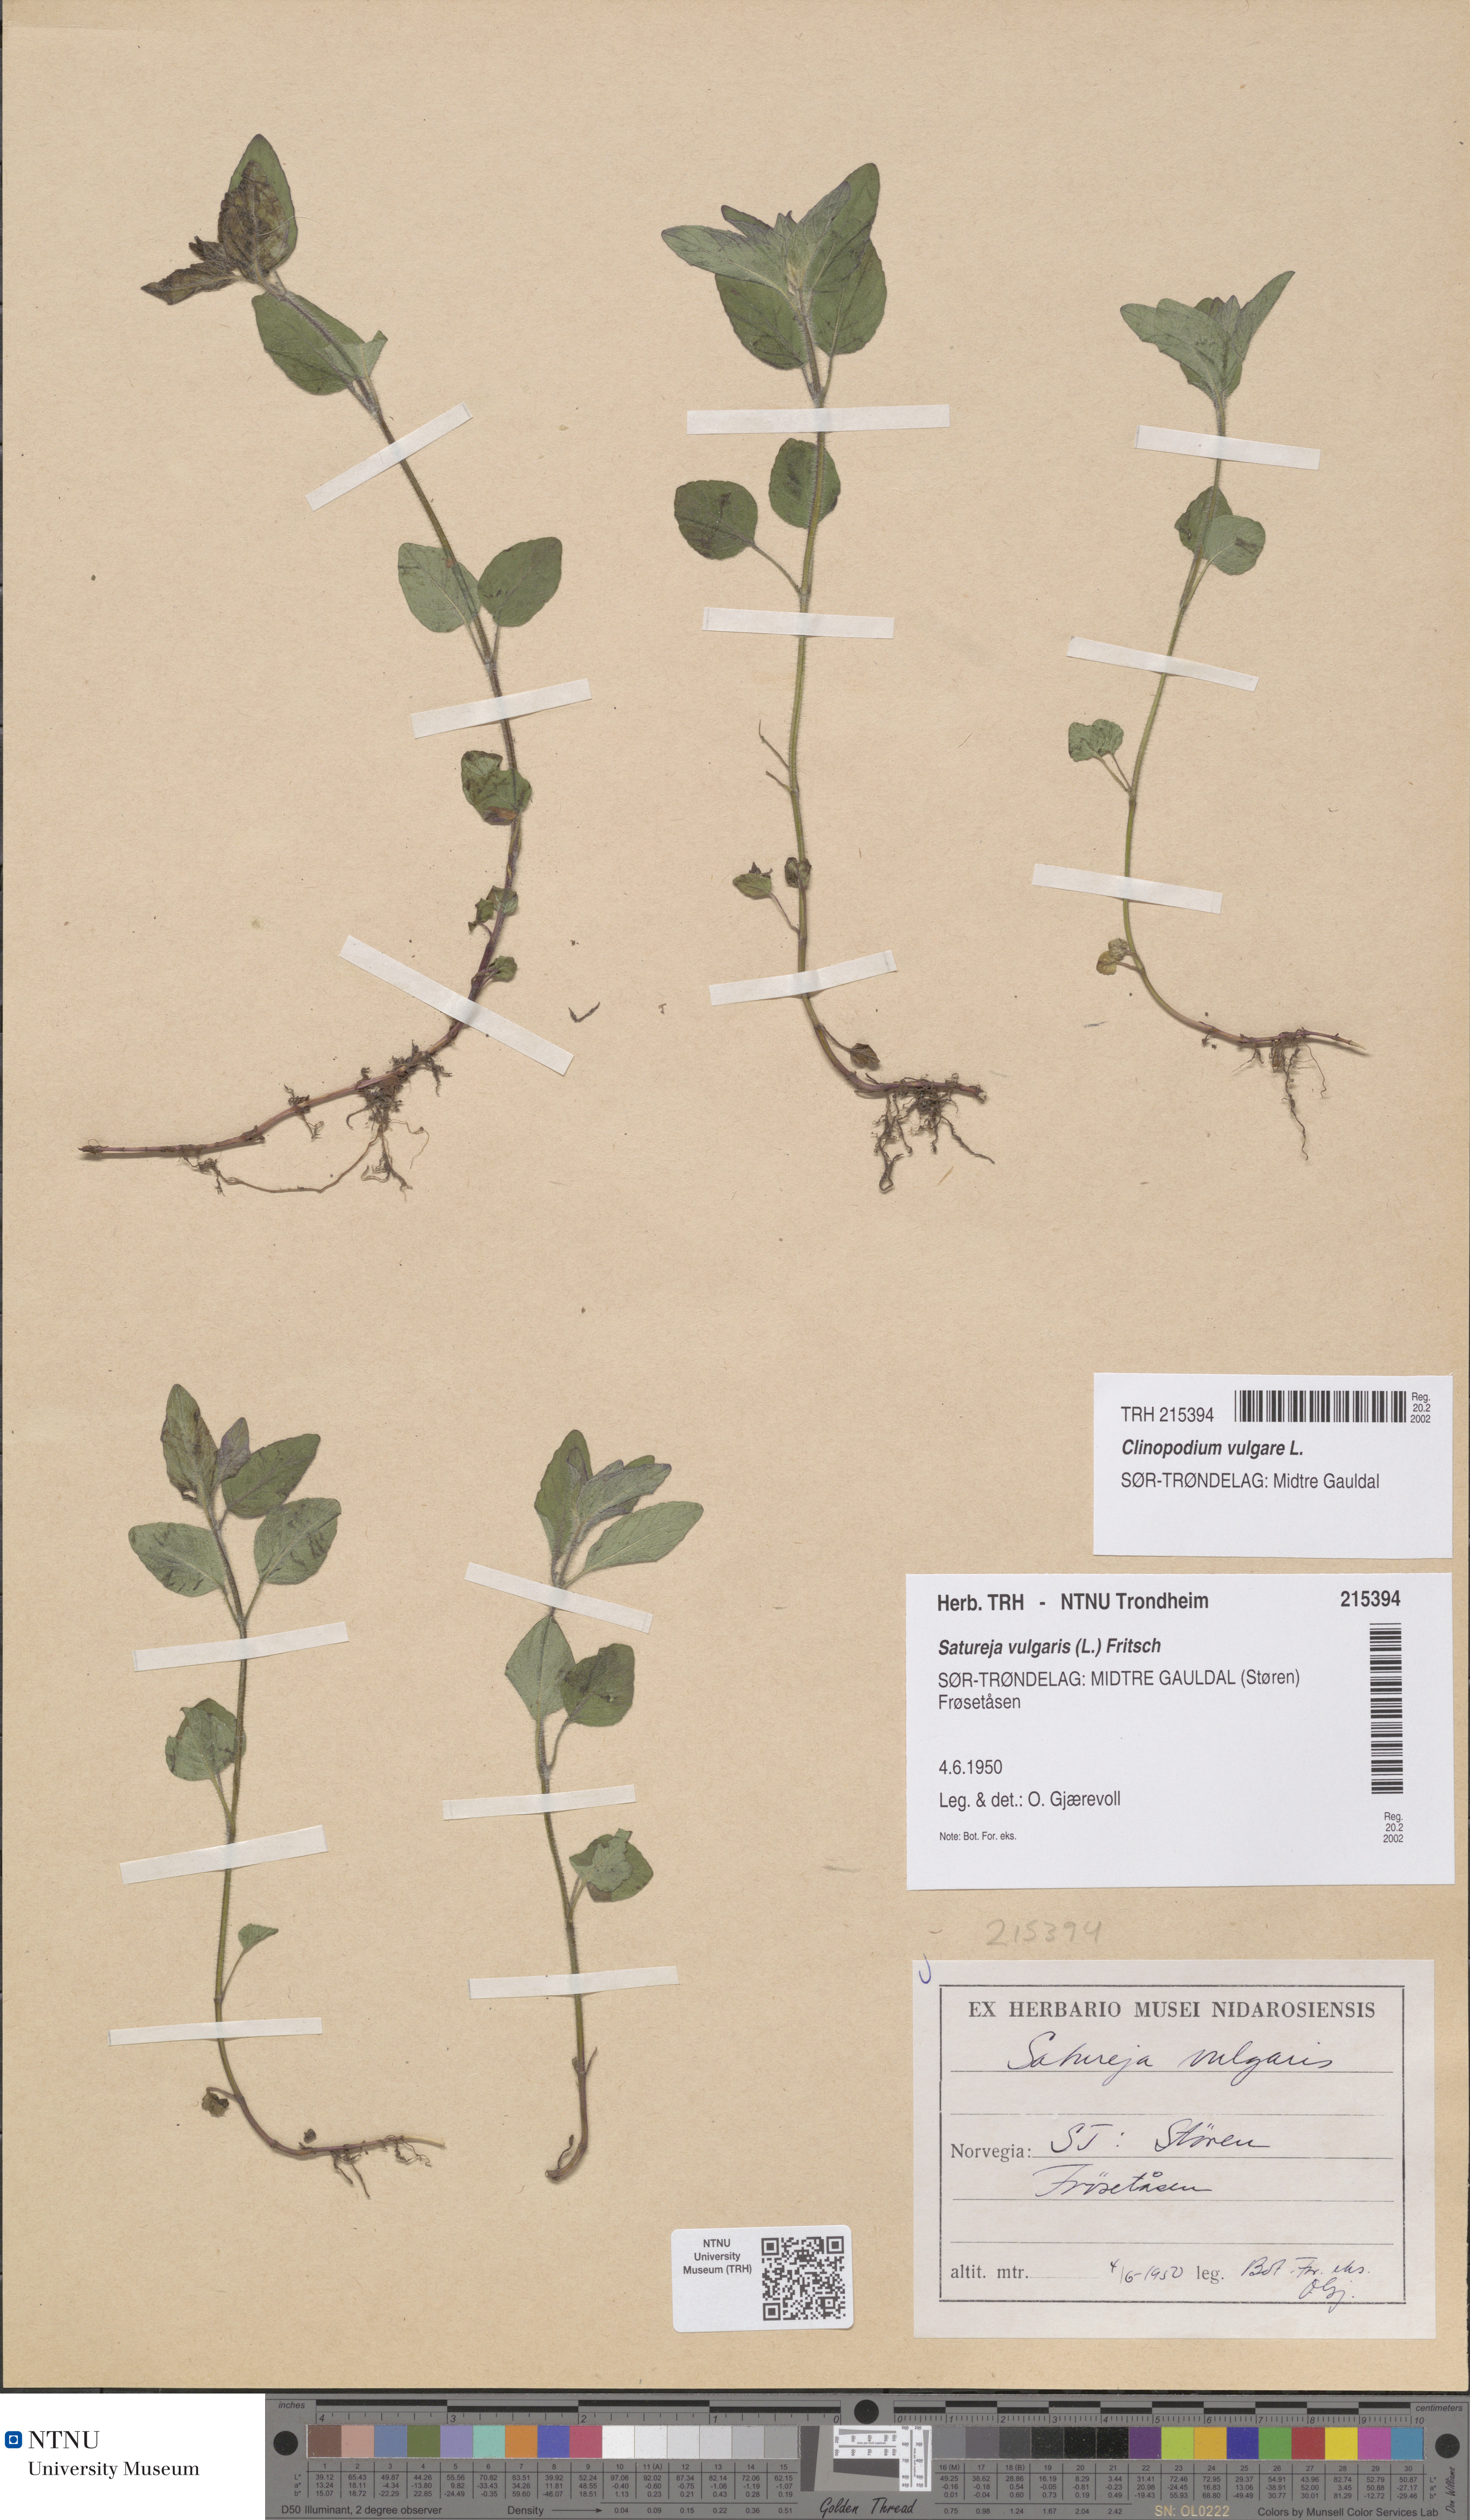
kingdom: Plantae
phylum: Tracheophyta
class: Magnoliopsida
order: Lamiales
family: Lamiaceae
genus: Clinopodium
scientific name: Clinopodium vulgare
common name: Wild basil
